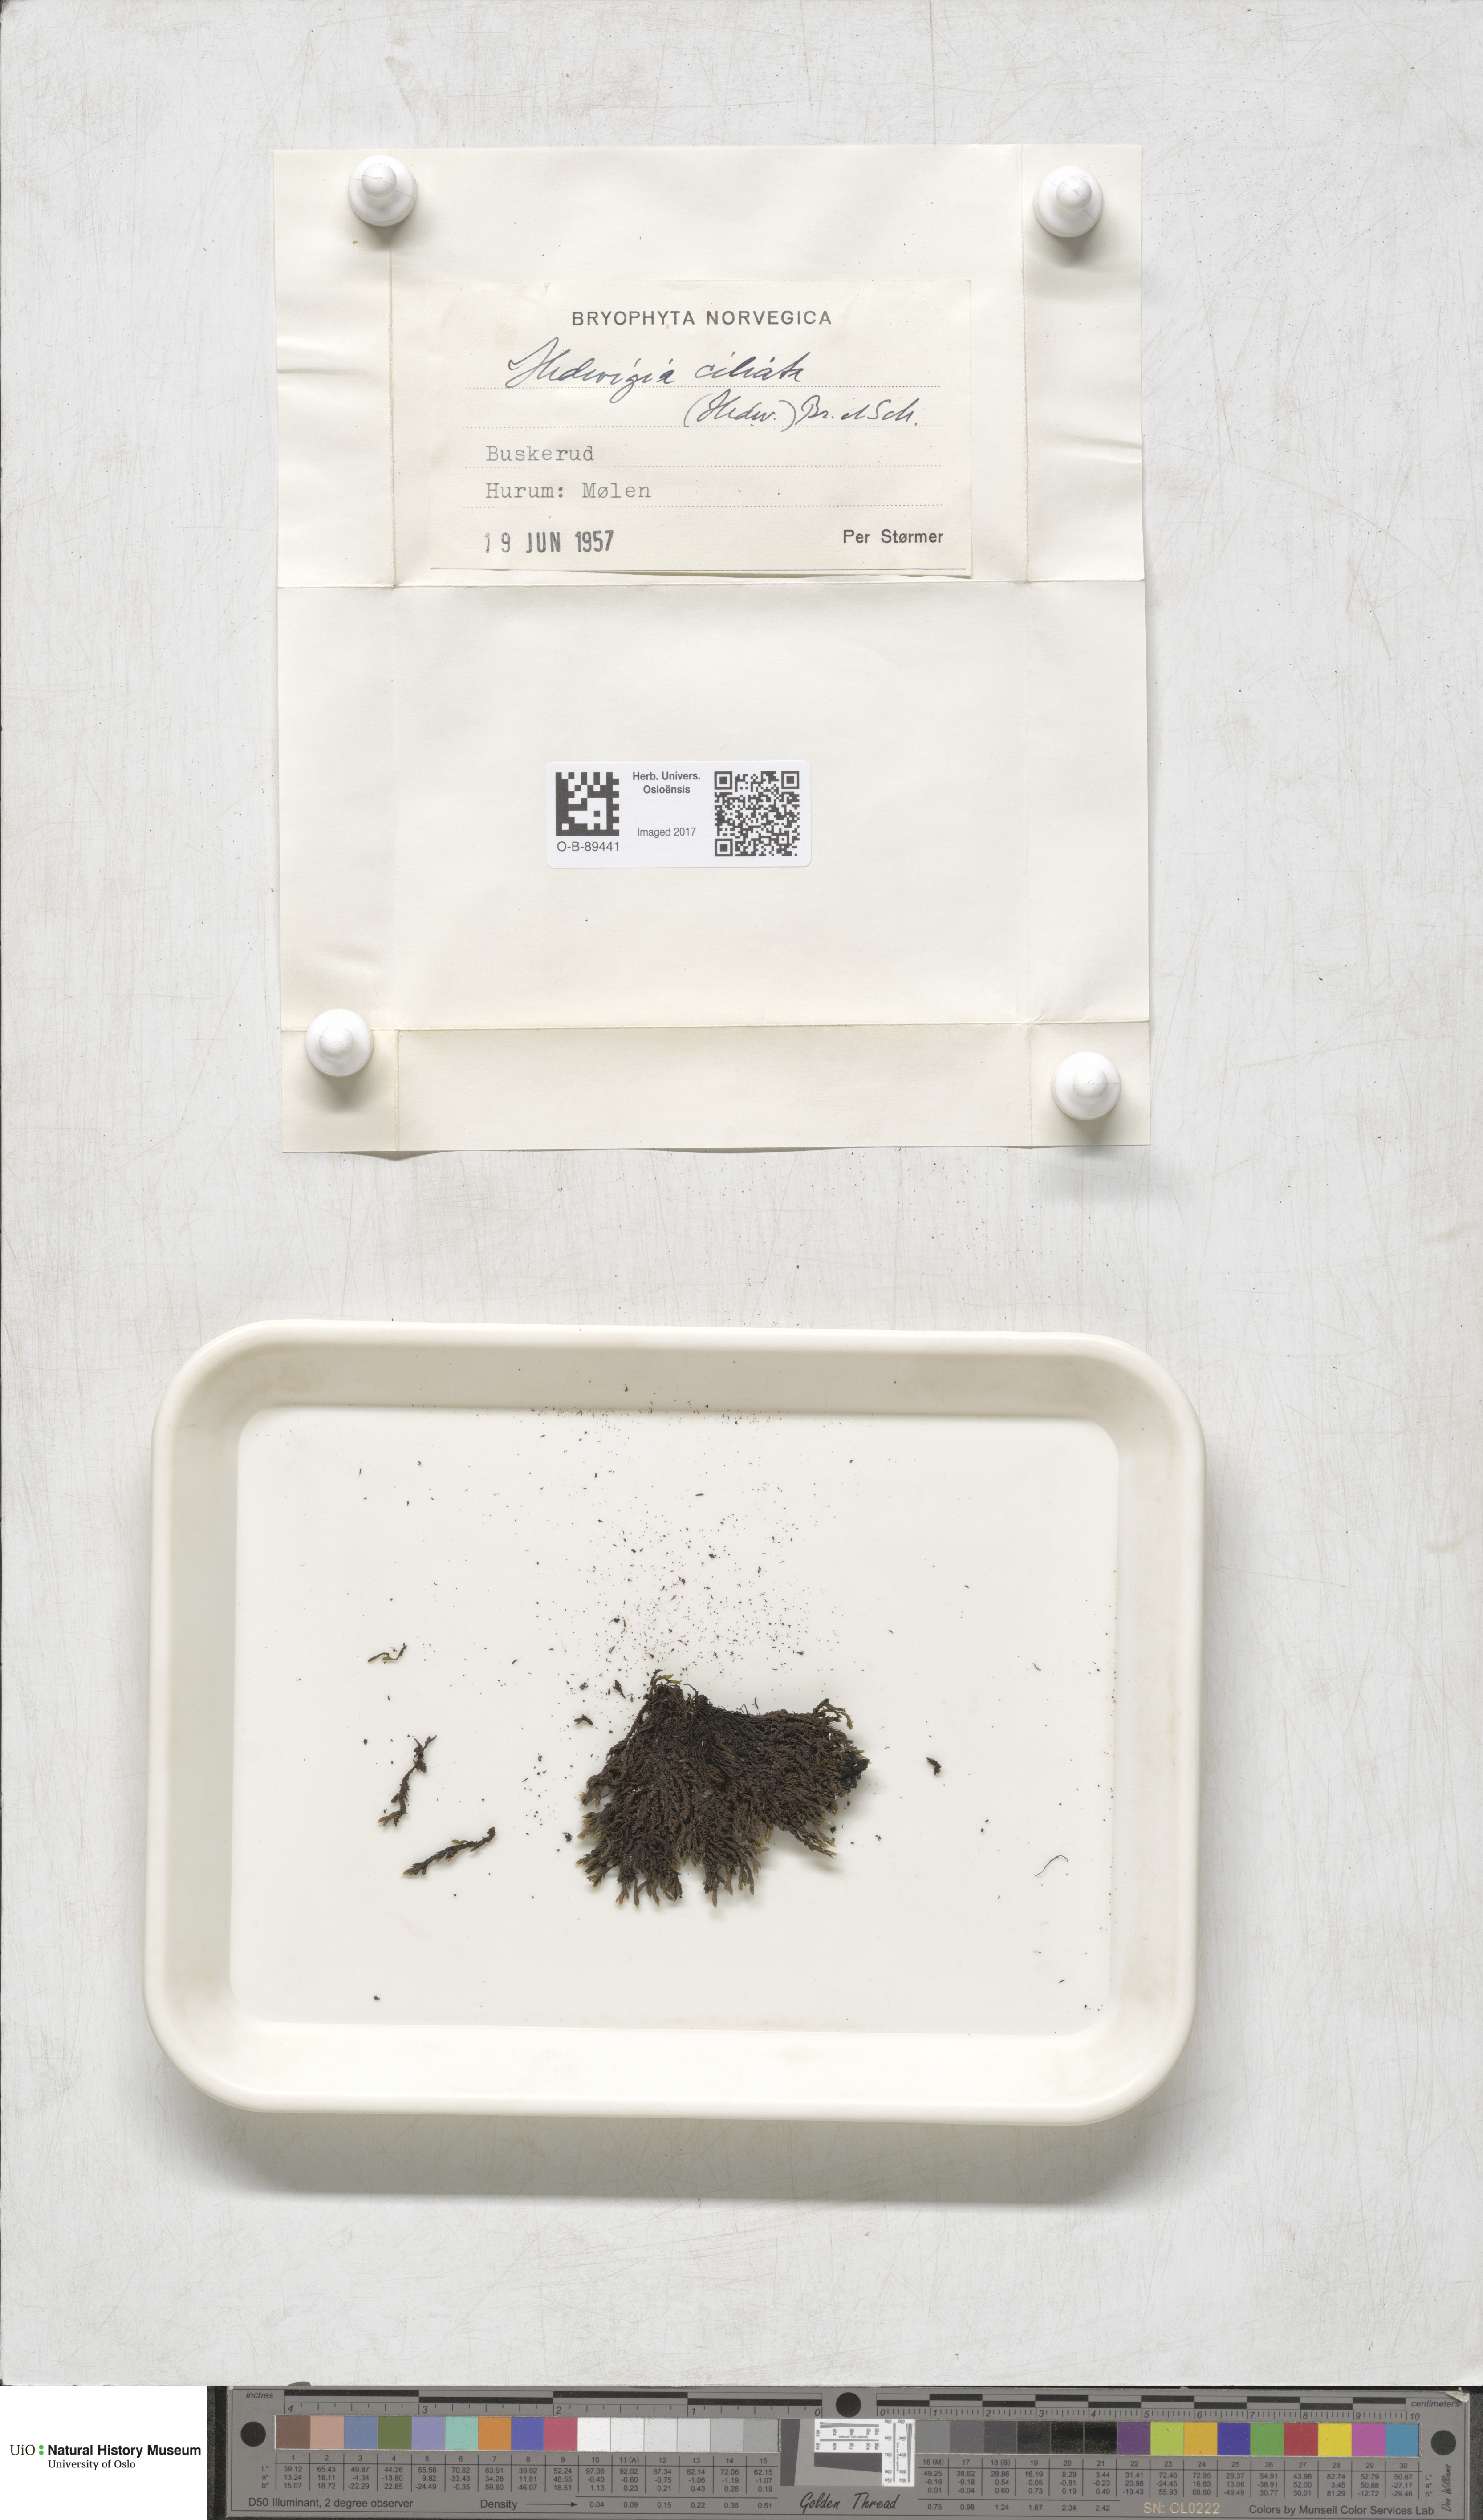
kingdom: Plantae
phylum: Bryophyta
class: Bryopsida
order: Hedwigiales
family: Hedwigiaceae
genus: Hedwigia
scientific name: Hedwigia ciliata
